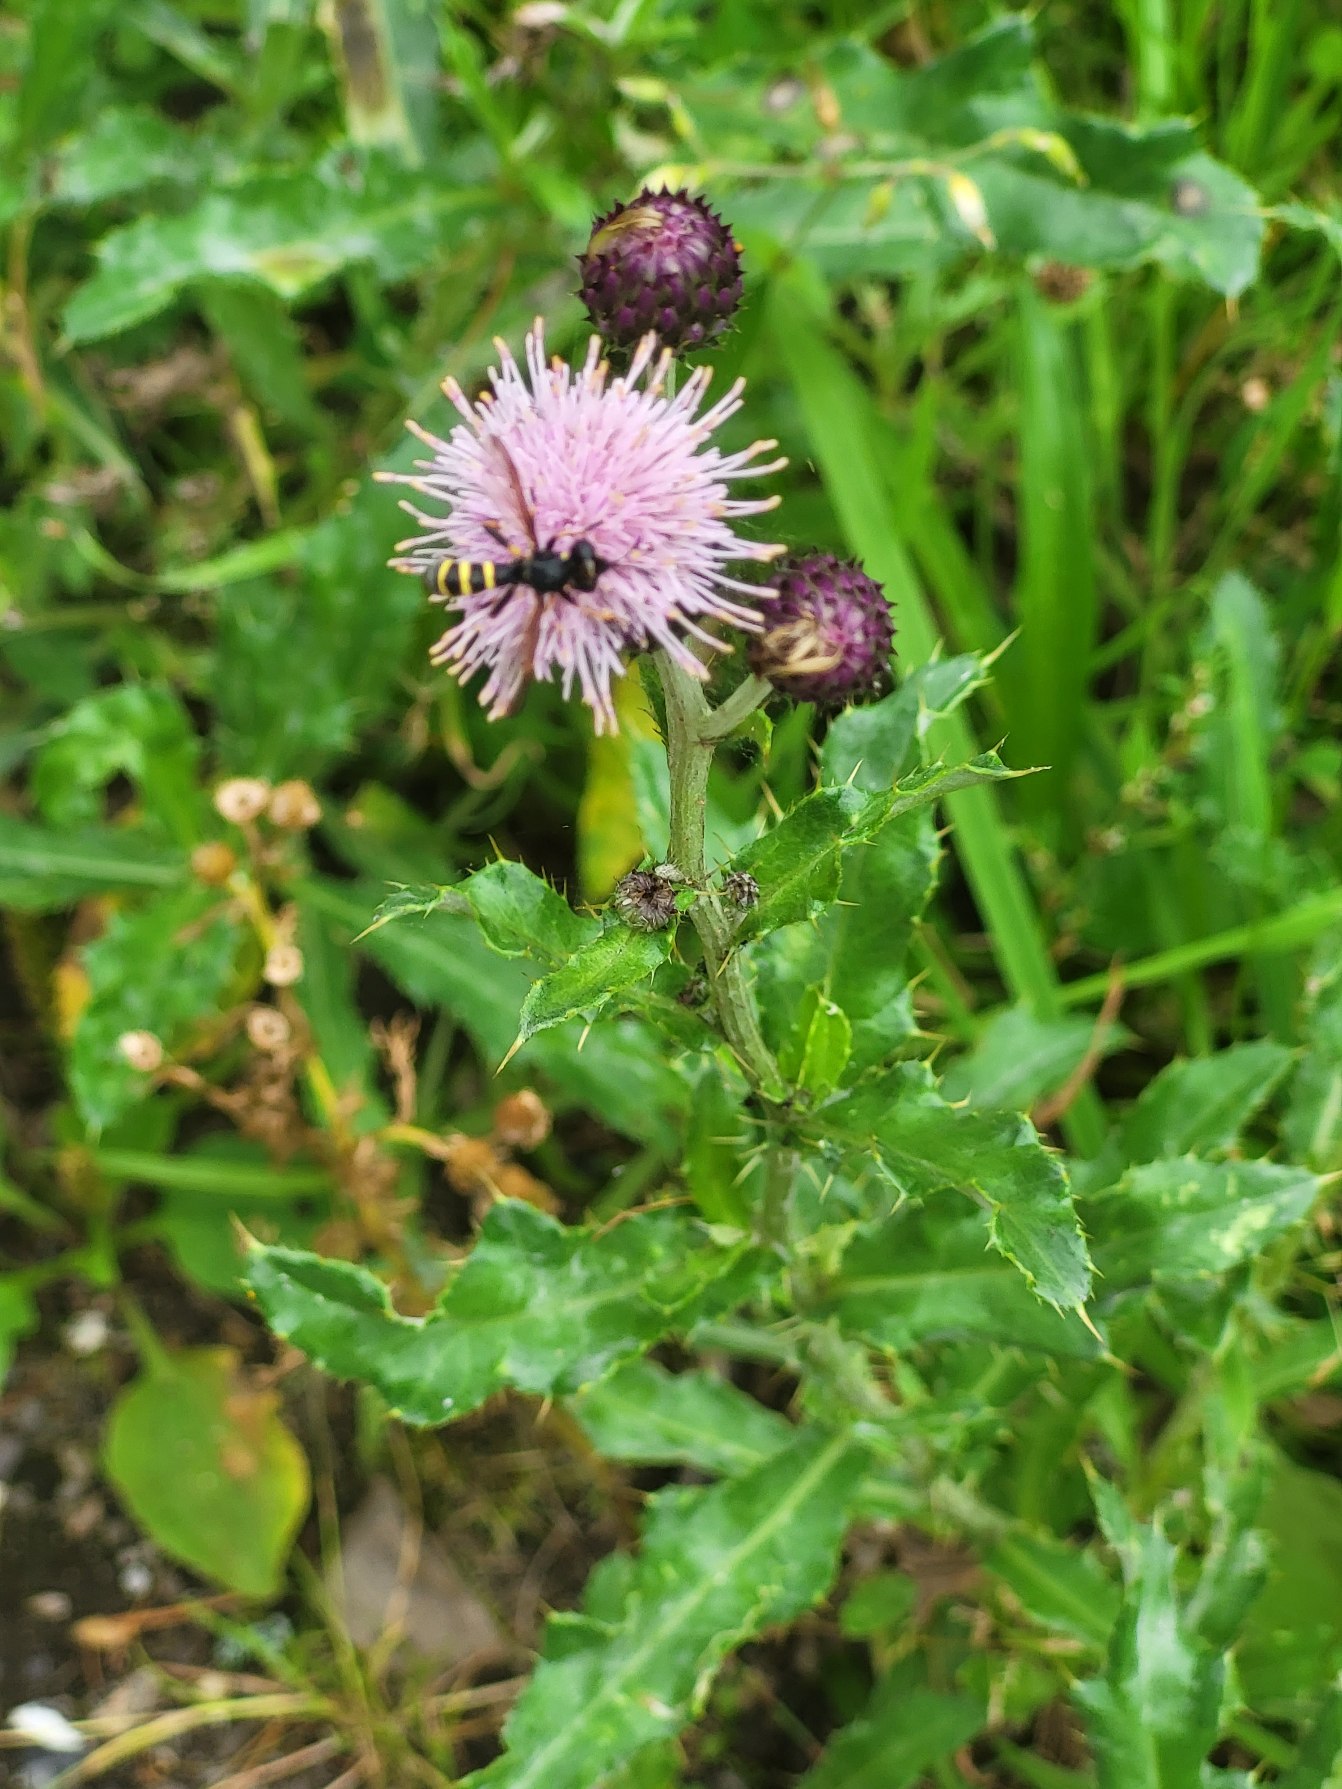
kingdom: Plantae
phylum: Tracheophyta
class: Magnoliopsida
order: Asterales
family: Asteraceae
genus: Cirsium
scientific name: Cirsium arvense
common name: Ager-tidsel
